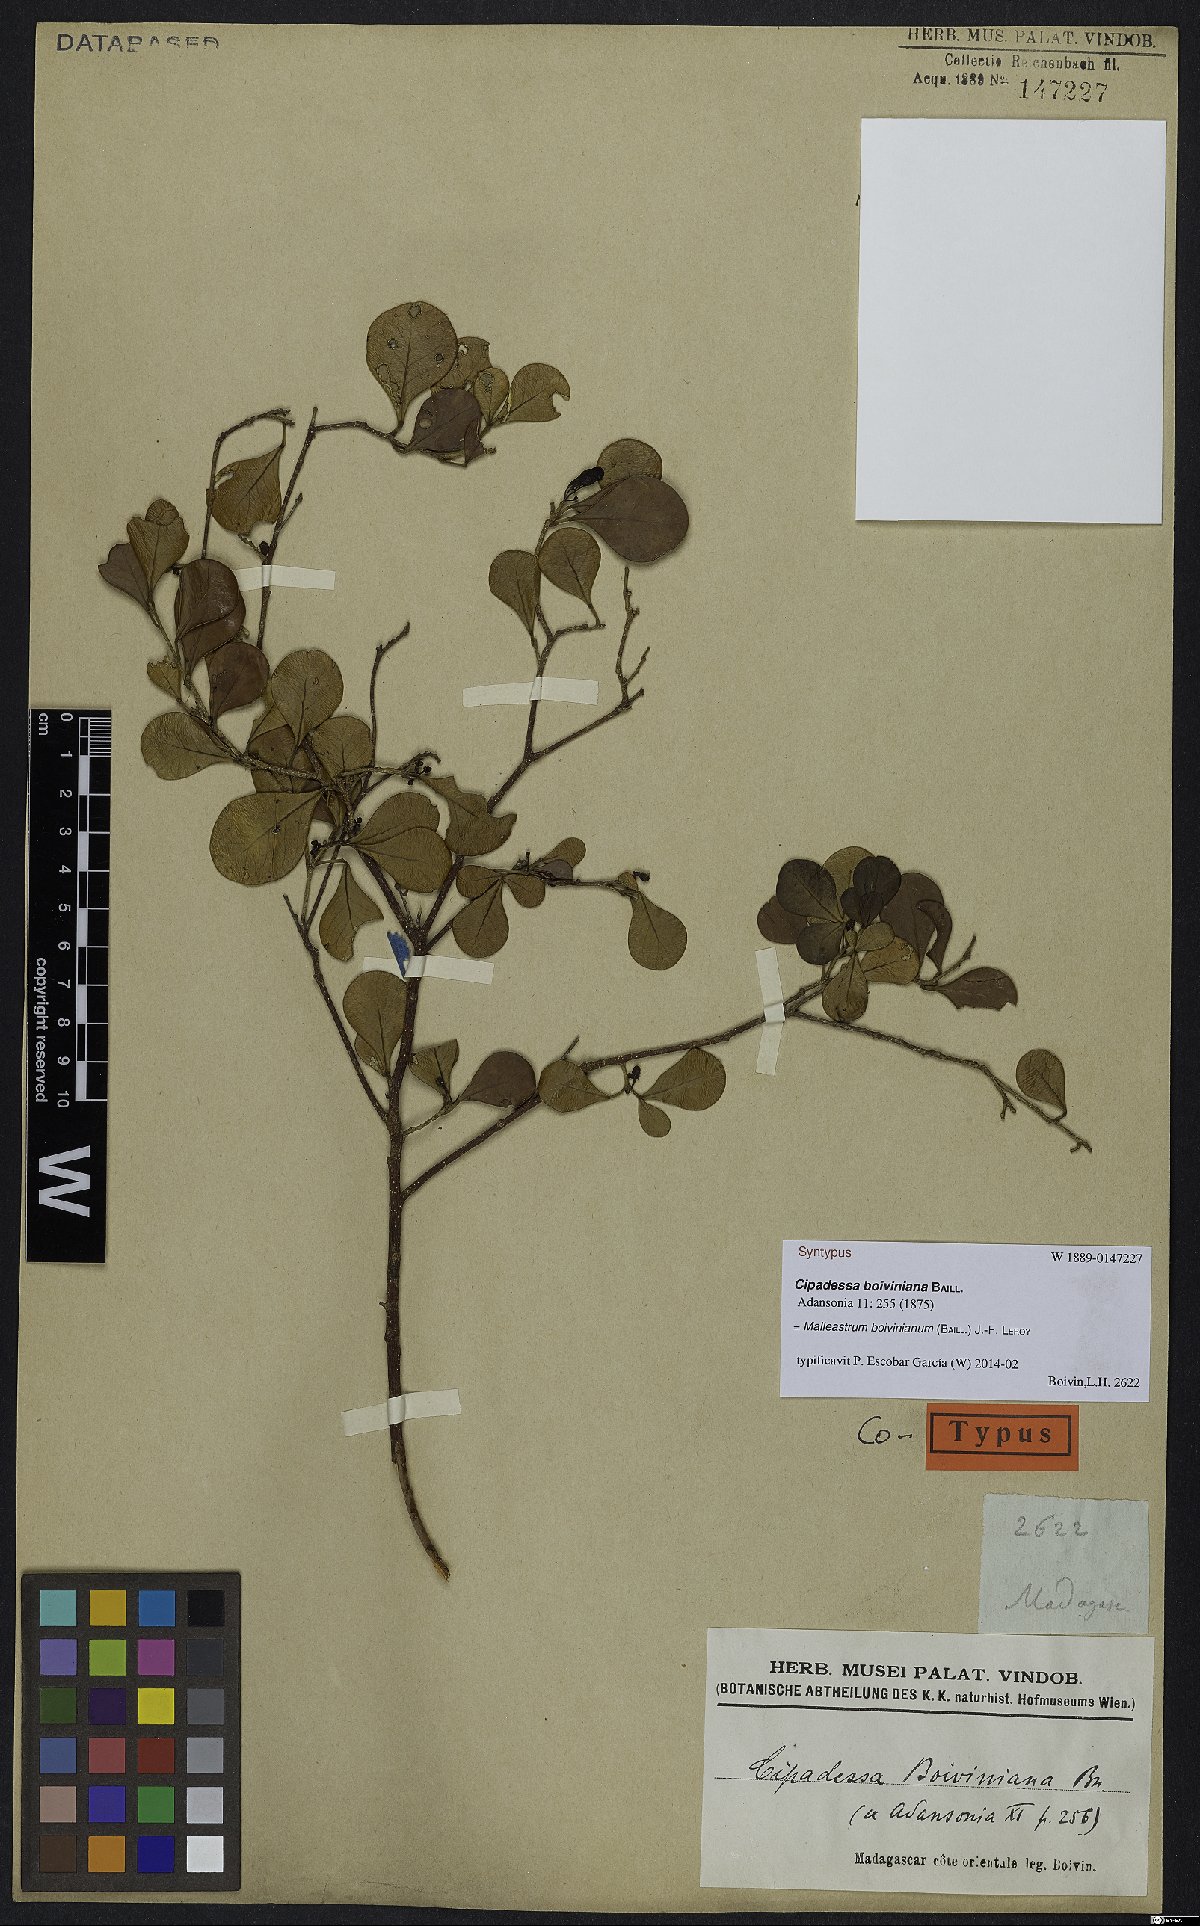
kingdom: Plantae
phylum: Tracheophyta
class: Magnoliopsida
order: Sapindales
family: Meliaceae
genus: Malleastrum
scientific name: Malleastrum boivinianum
